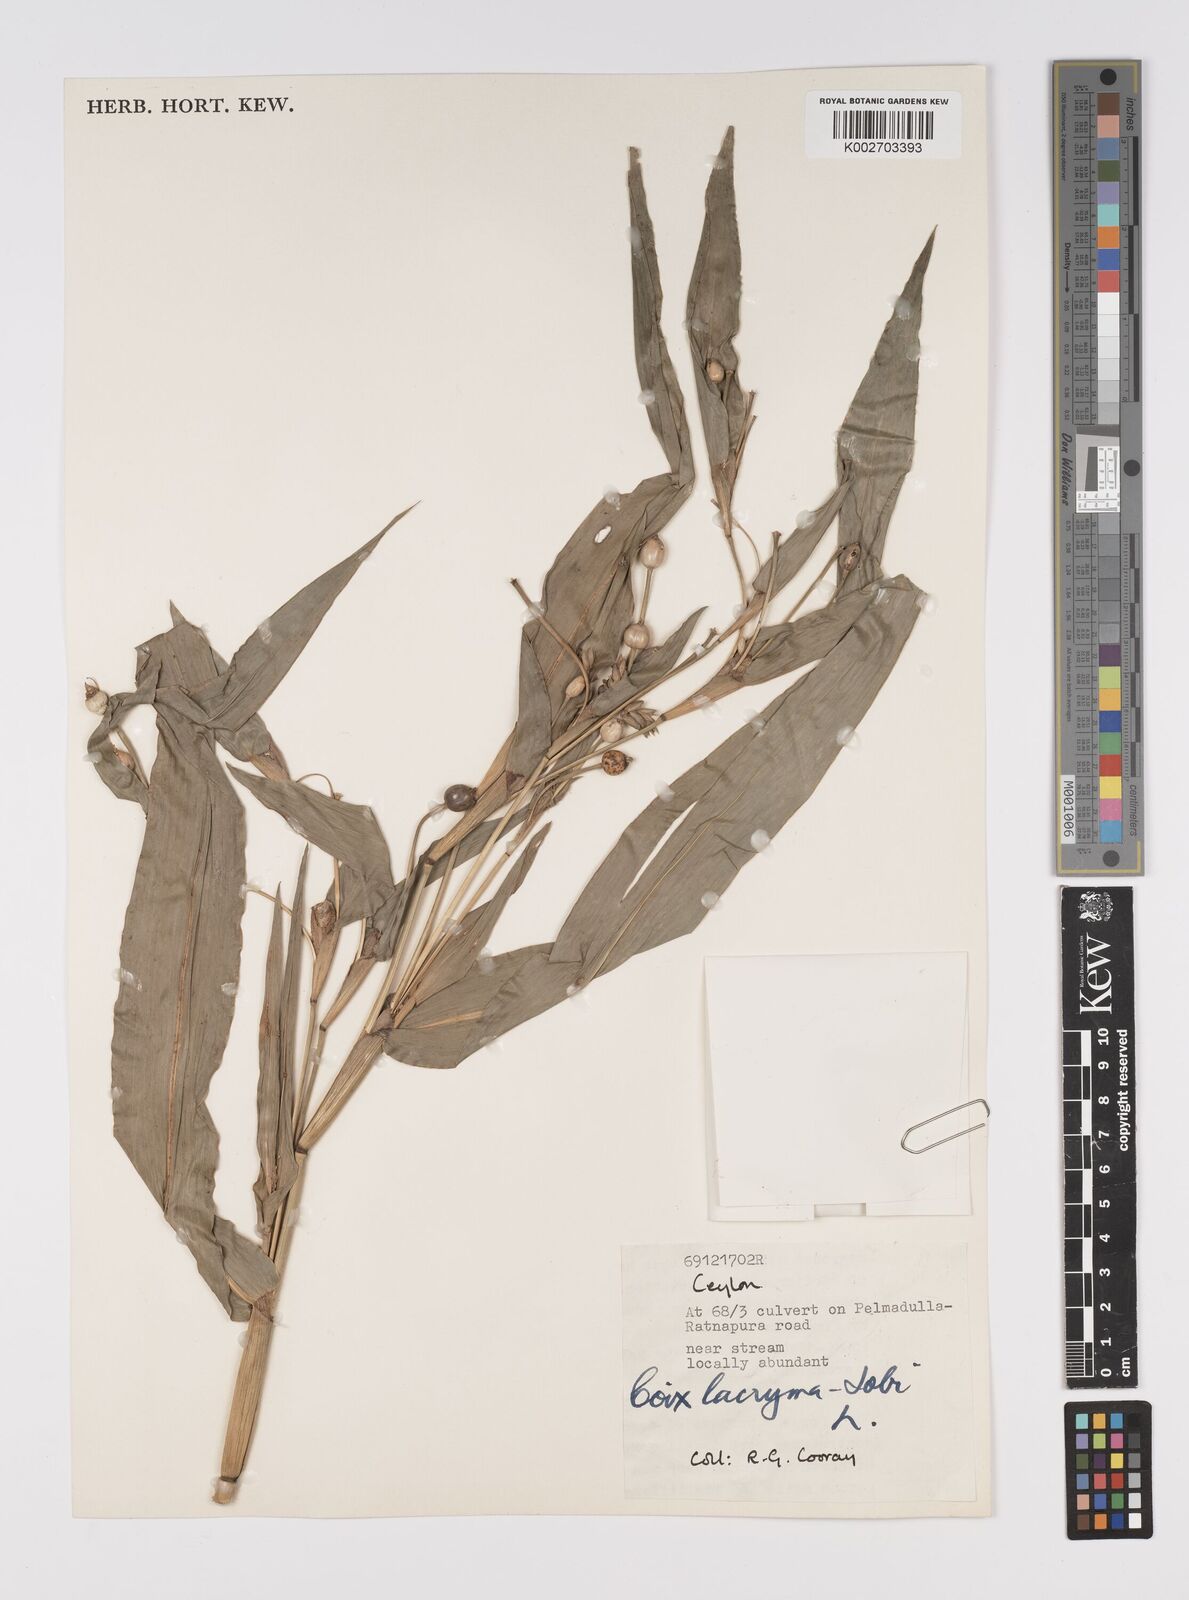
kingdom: Plantae
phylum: Tracheophyta
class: Liliopsida
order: Poales
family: Poaceae
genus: Coix
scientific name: Coix lacryma-jobi
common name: Job's tears
